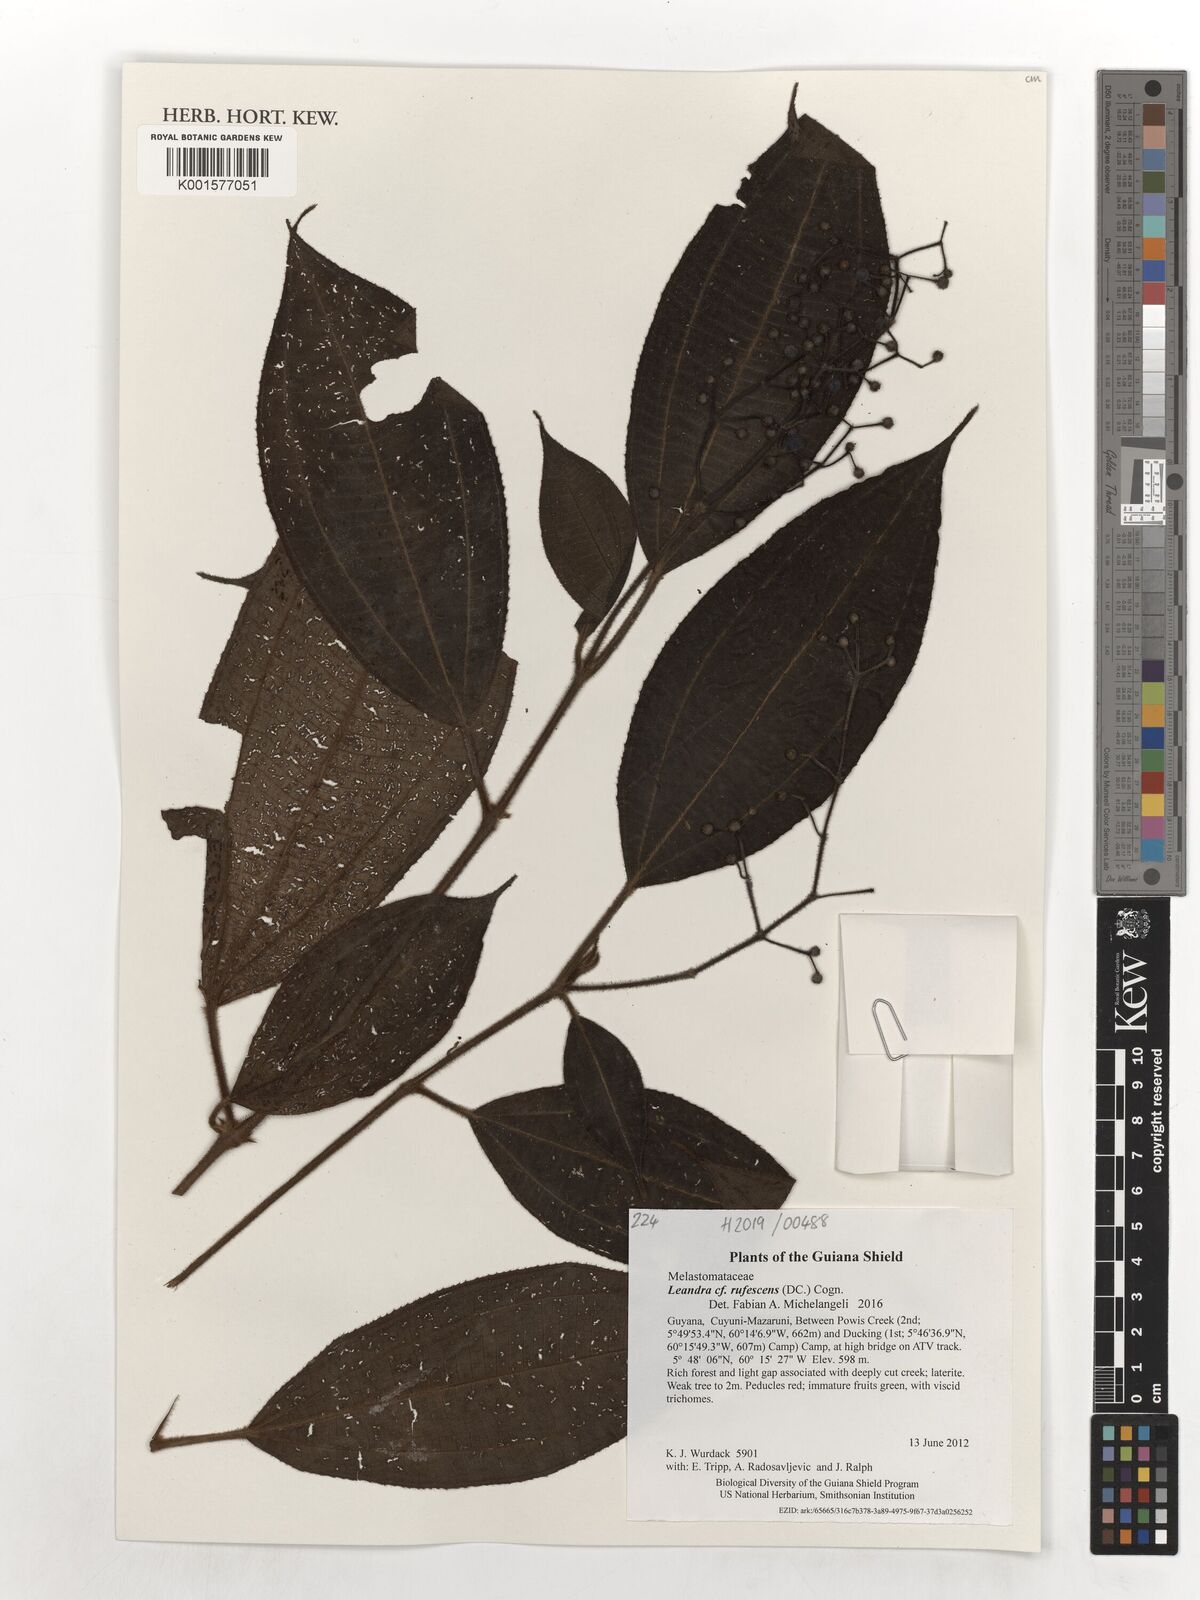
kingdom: Plantae
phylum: Tracheophyta
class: Magnoliopsida
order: Myrtales
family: Melastomataceae
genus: Miconia
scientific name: Miconia asperiuscula
